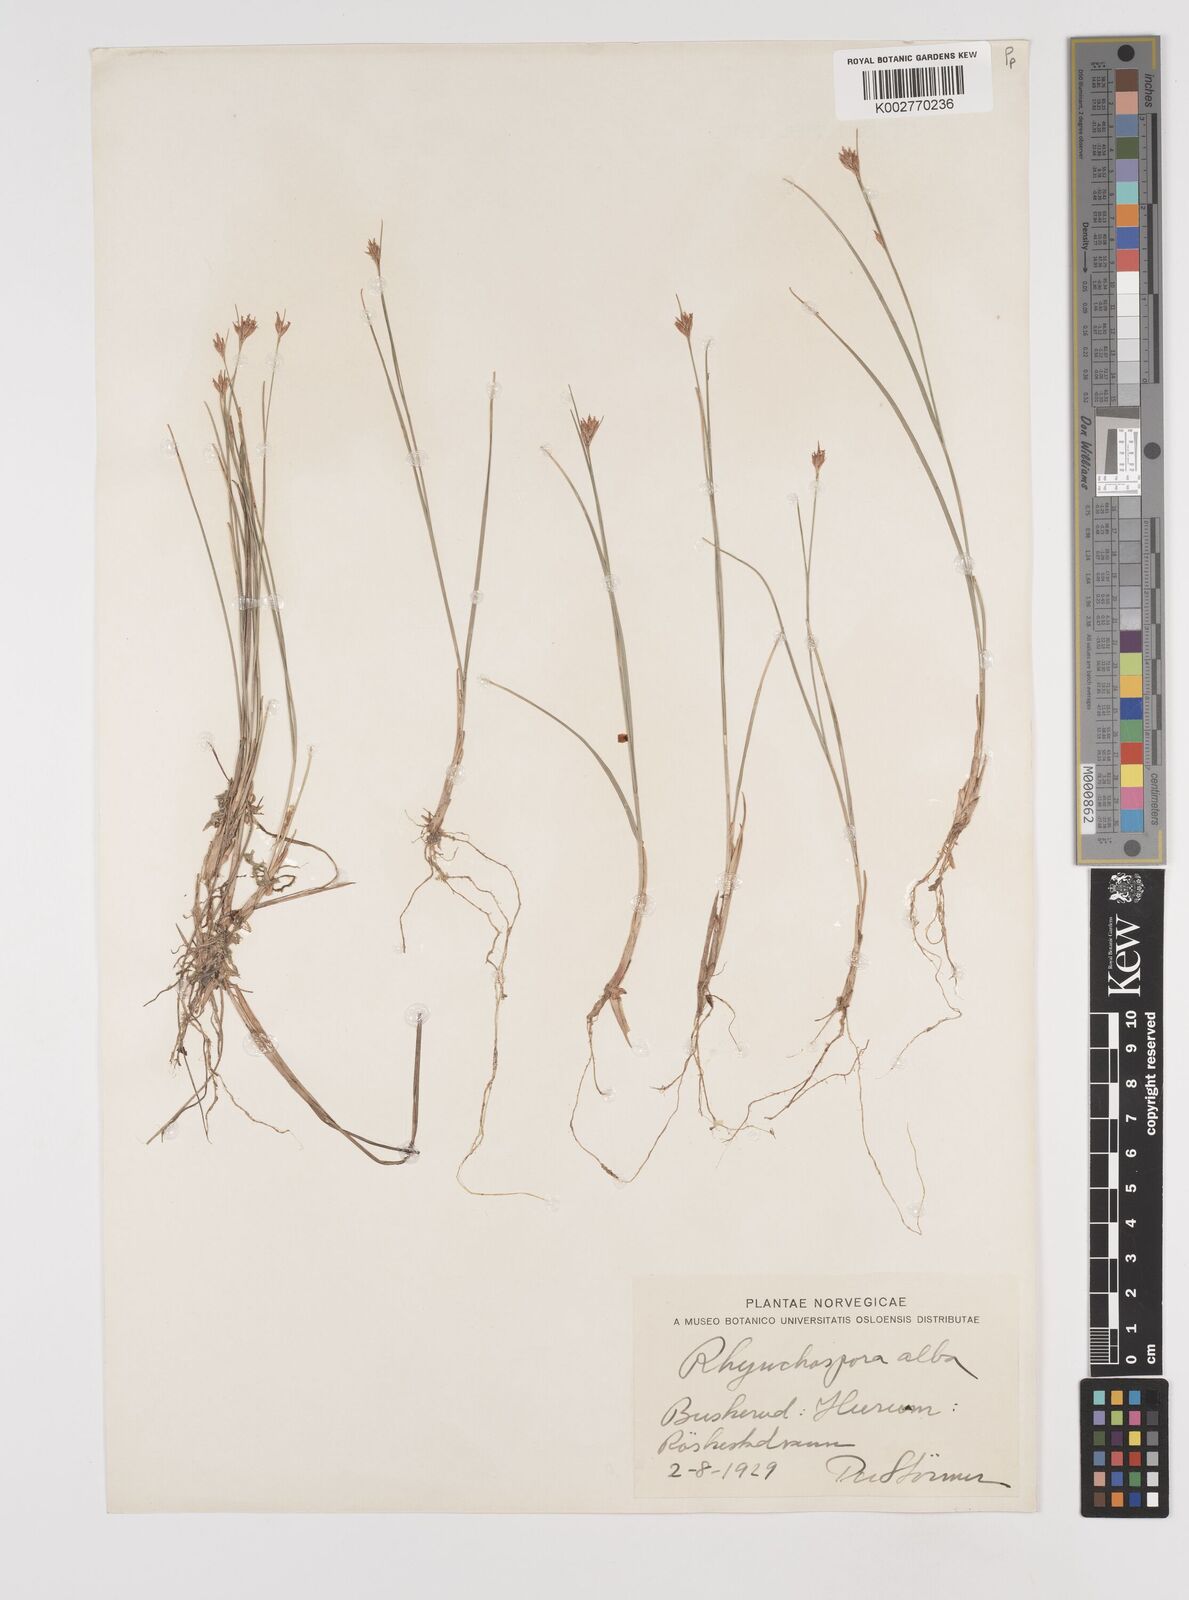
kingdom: Plantae
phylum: Tracheophyta
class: Liliopsida
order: Poales
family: Cyperaceae
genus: Rhynchospora
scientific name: Rhynchospora alba
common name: White beak-sedge
